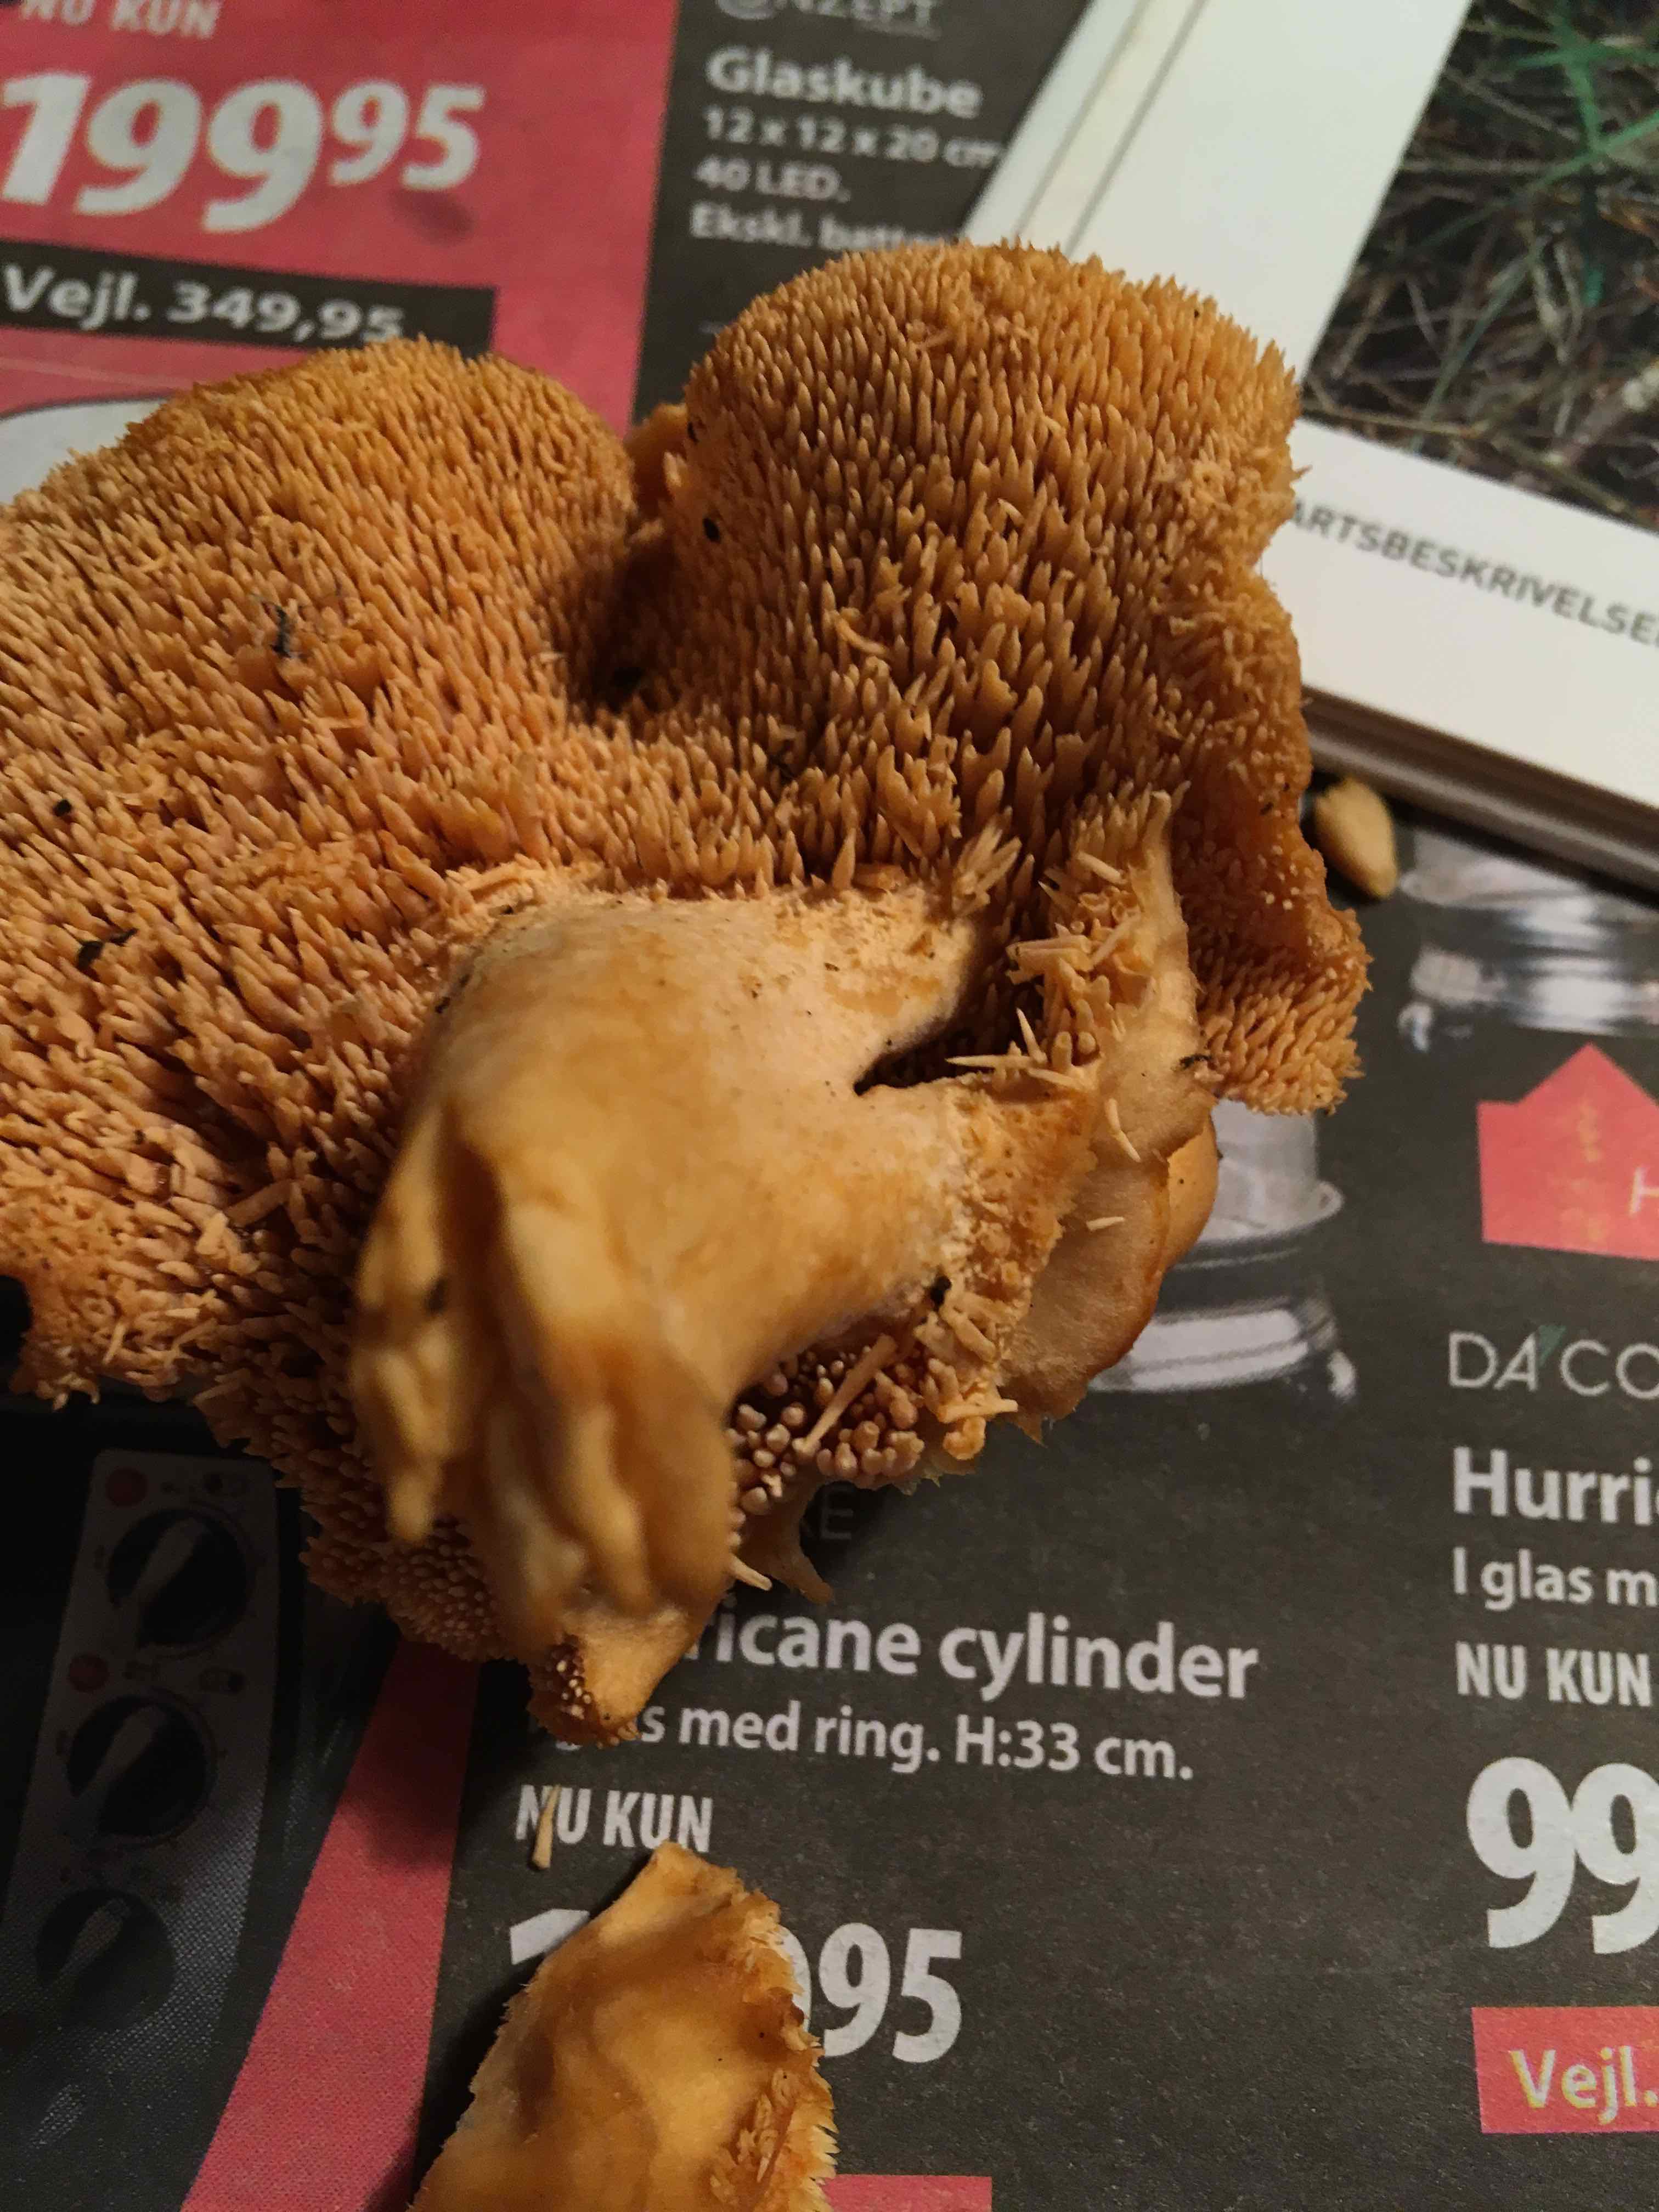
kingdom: Fungi
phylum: Basidiomycota
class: Agaricomycetes
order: Cantharellales
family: Hydnaceae
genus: Hydnum
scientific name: Hydnum
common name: pigsvamp
